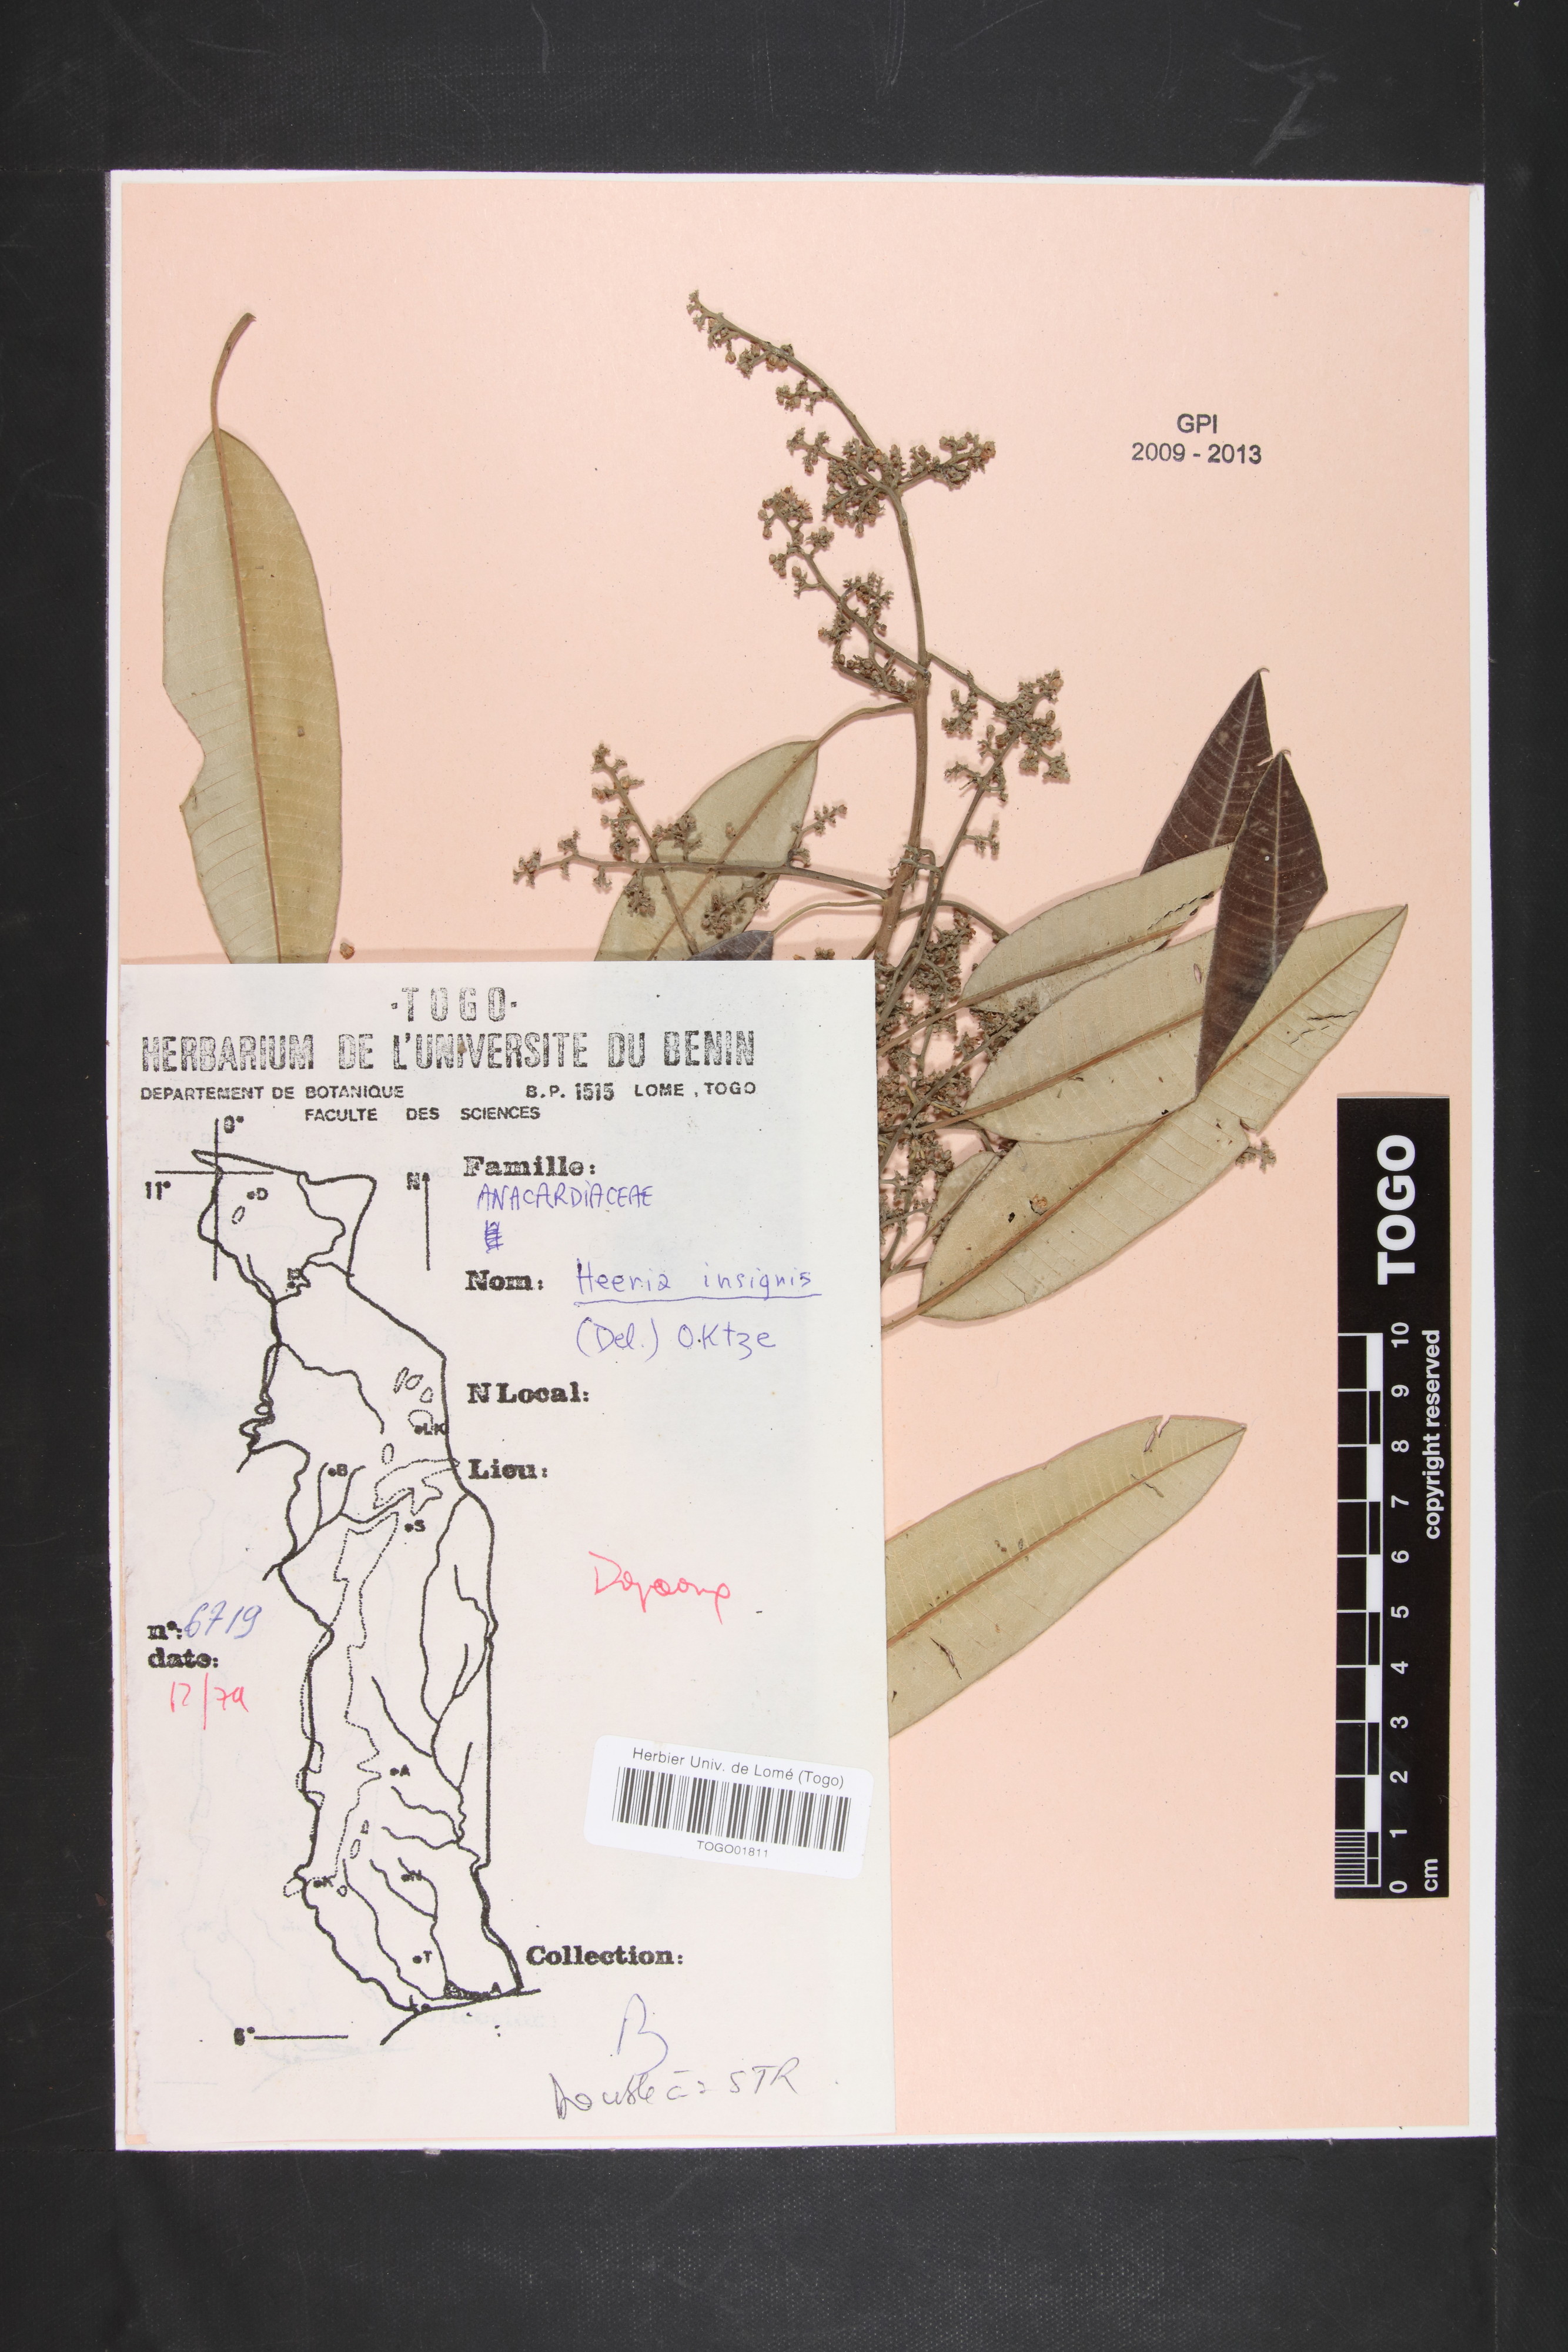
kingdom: Plantae
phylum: Tracheophyta
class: Magnoliopsida
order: Sapindales
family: Anacardiaceae
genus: Ozoroa
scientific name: Ozoroa
